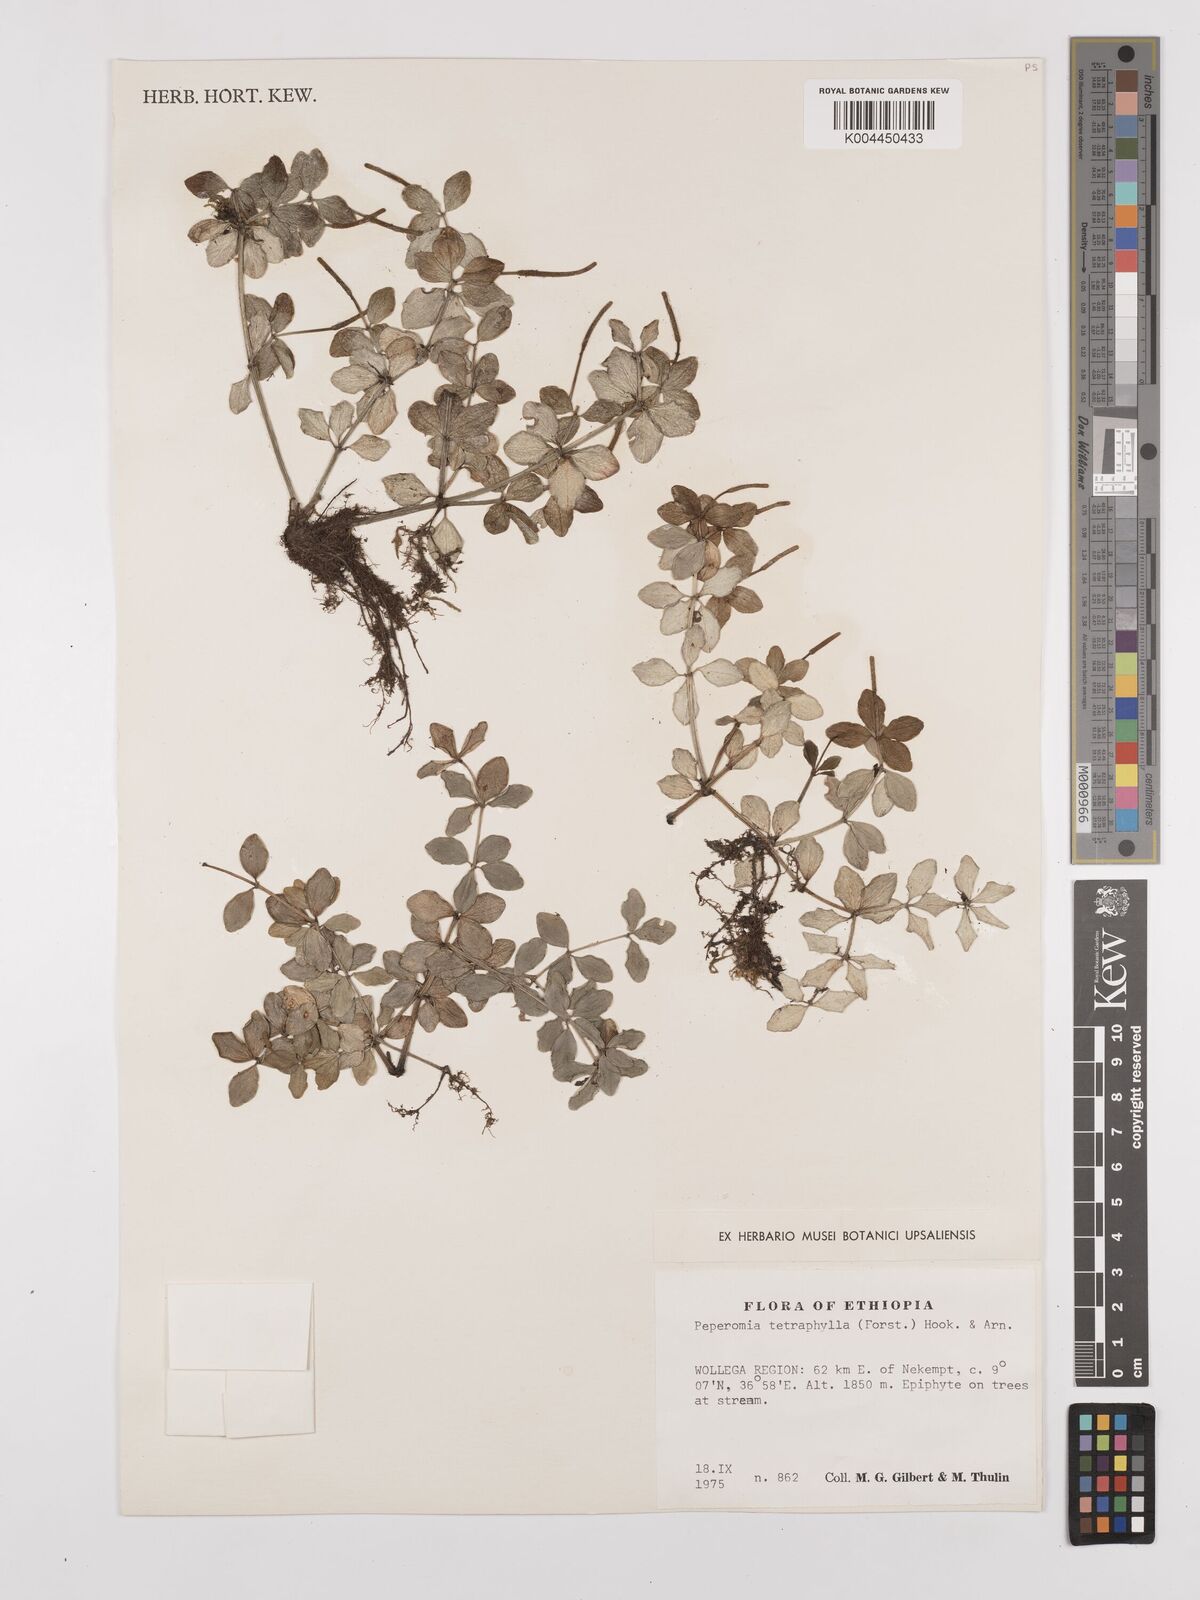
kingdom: Plantae
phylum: Tracheophyta
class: Magnoliopsida
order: Piperales
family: Piperaceae
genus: Peperomia
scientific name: Peperomia tetraphylla
